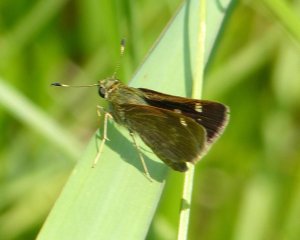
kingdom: Animalia
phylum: Arthropoda
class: Insecta
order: Lepidoptera
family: Hesperiidae
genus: Vernia
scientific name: Vernia verna
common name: Little Glassywing
